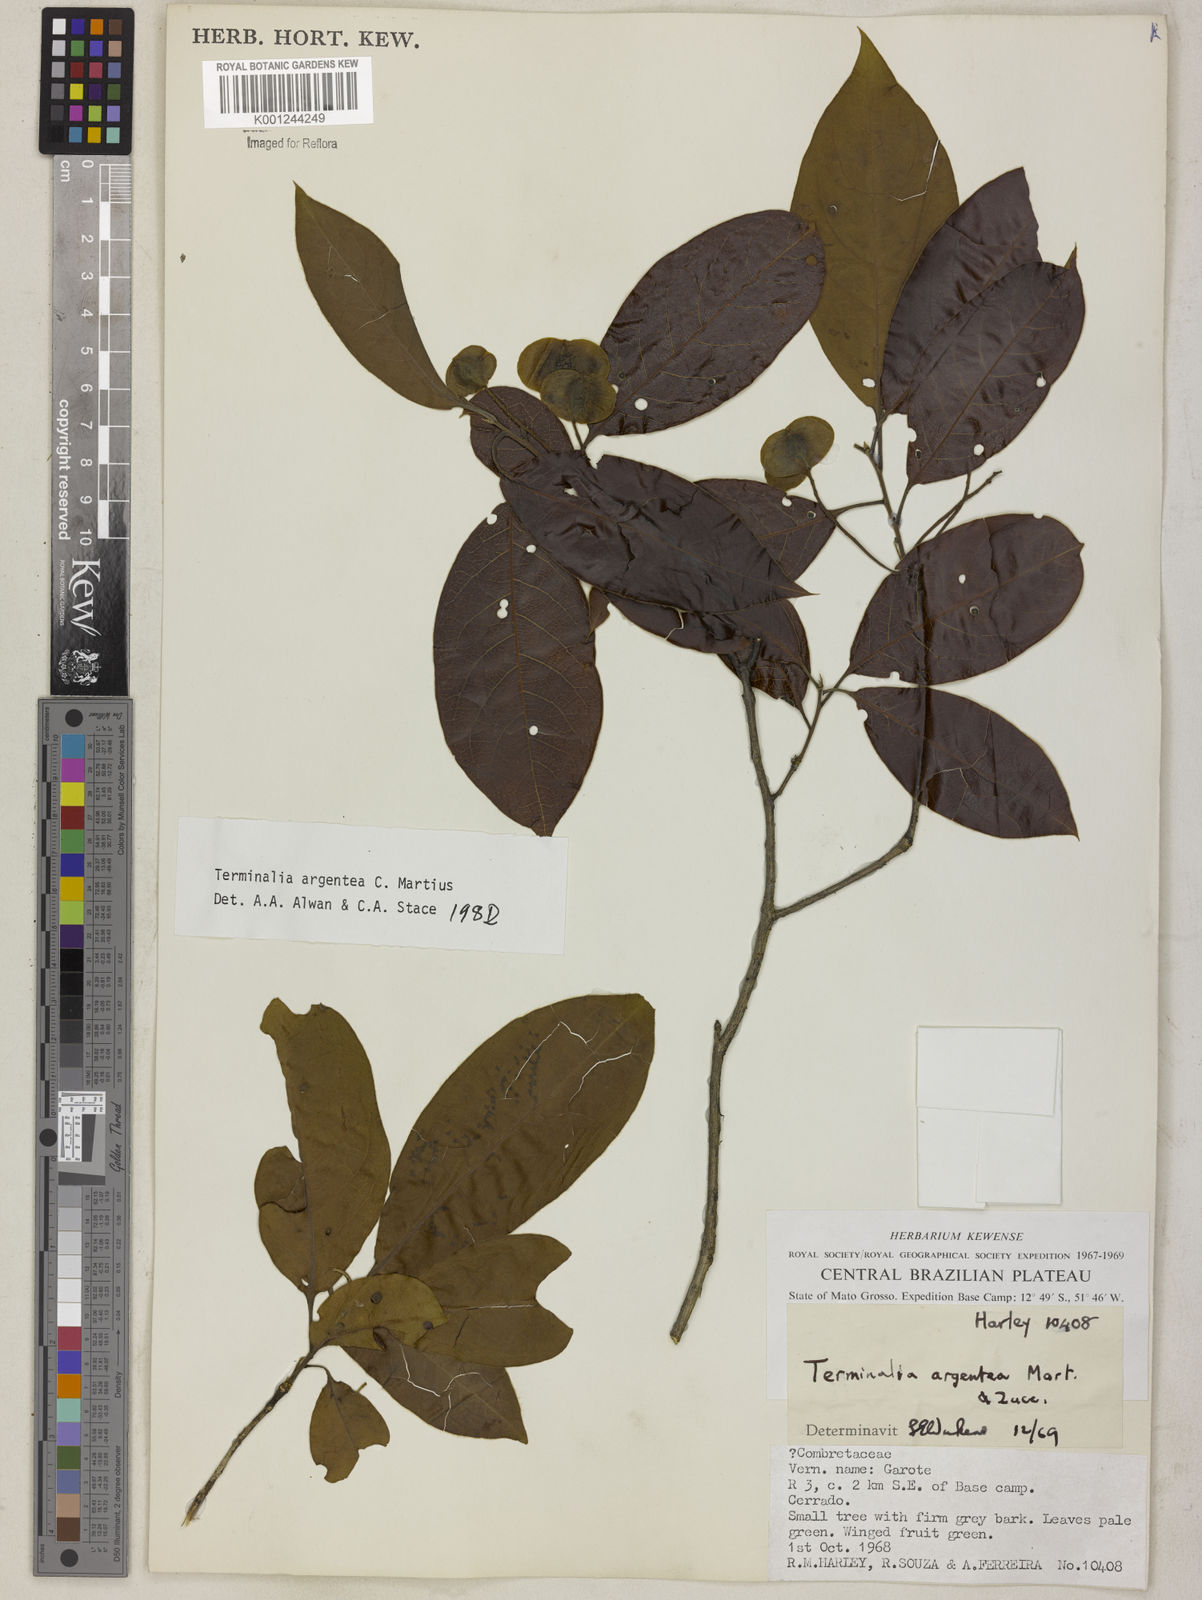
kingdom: Plantae
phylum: Tracheophyta
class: Magnoliopsida
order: Myrtales
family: Combretaceae
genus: Terminalia
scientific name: Terminalia argentea
